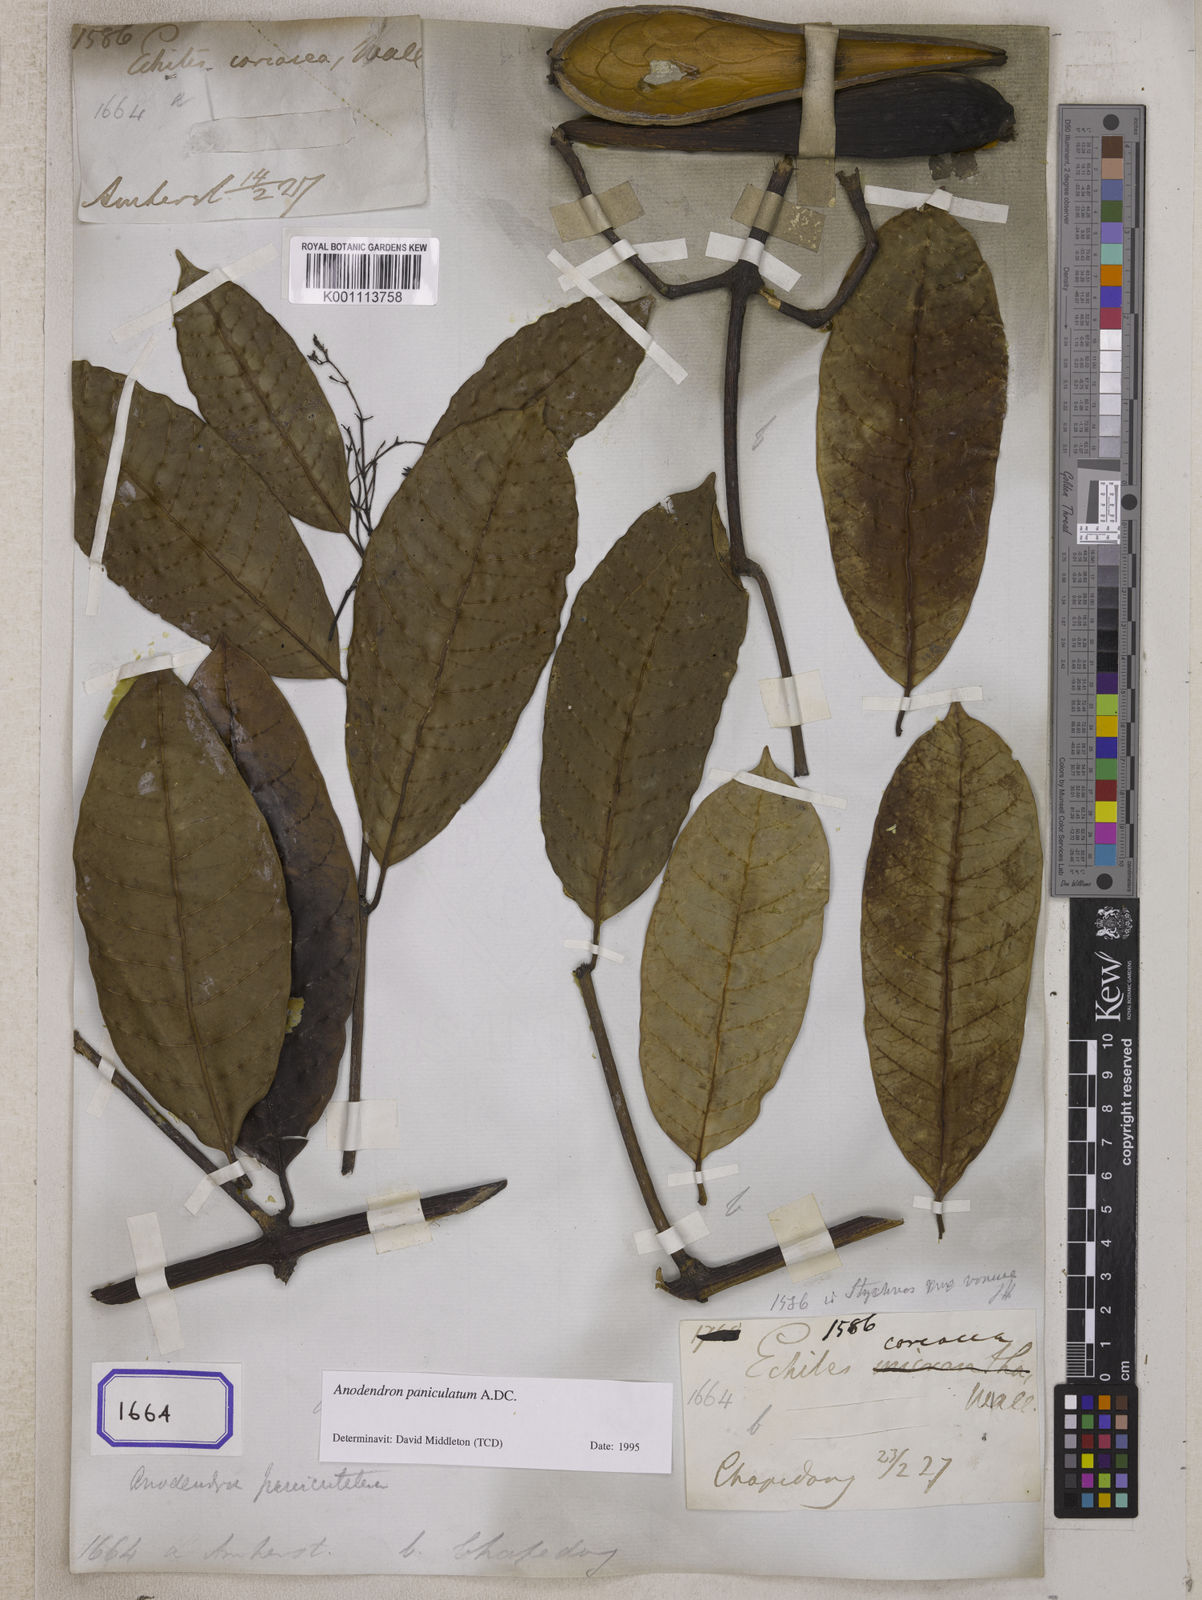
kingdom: Plantae
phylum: Tracheophyta
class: Magnoliopsida
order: Gentianales
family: Apocynaceae
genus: Anodendron
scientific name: Anodendron parviflorum
